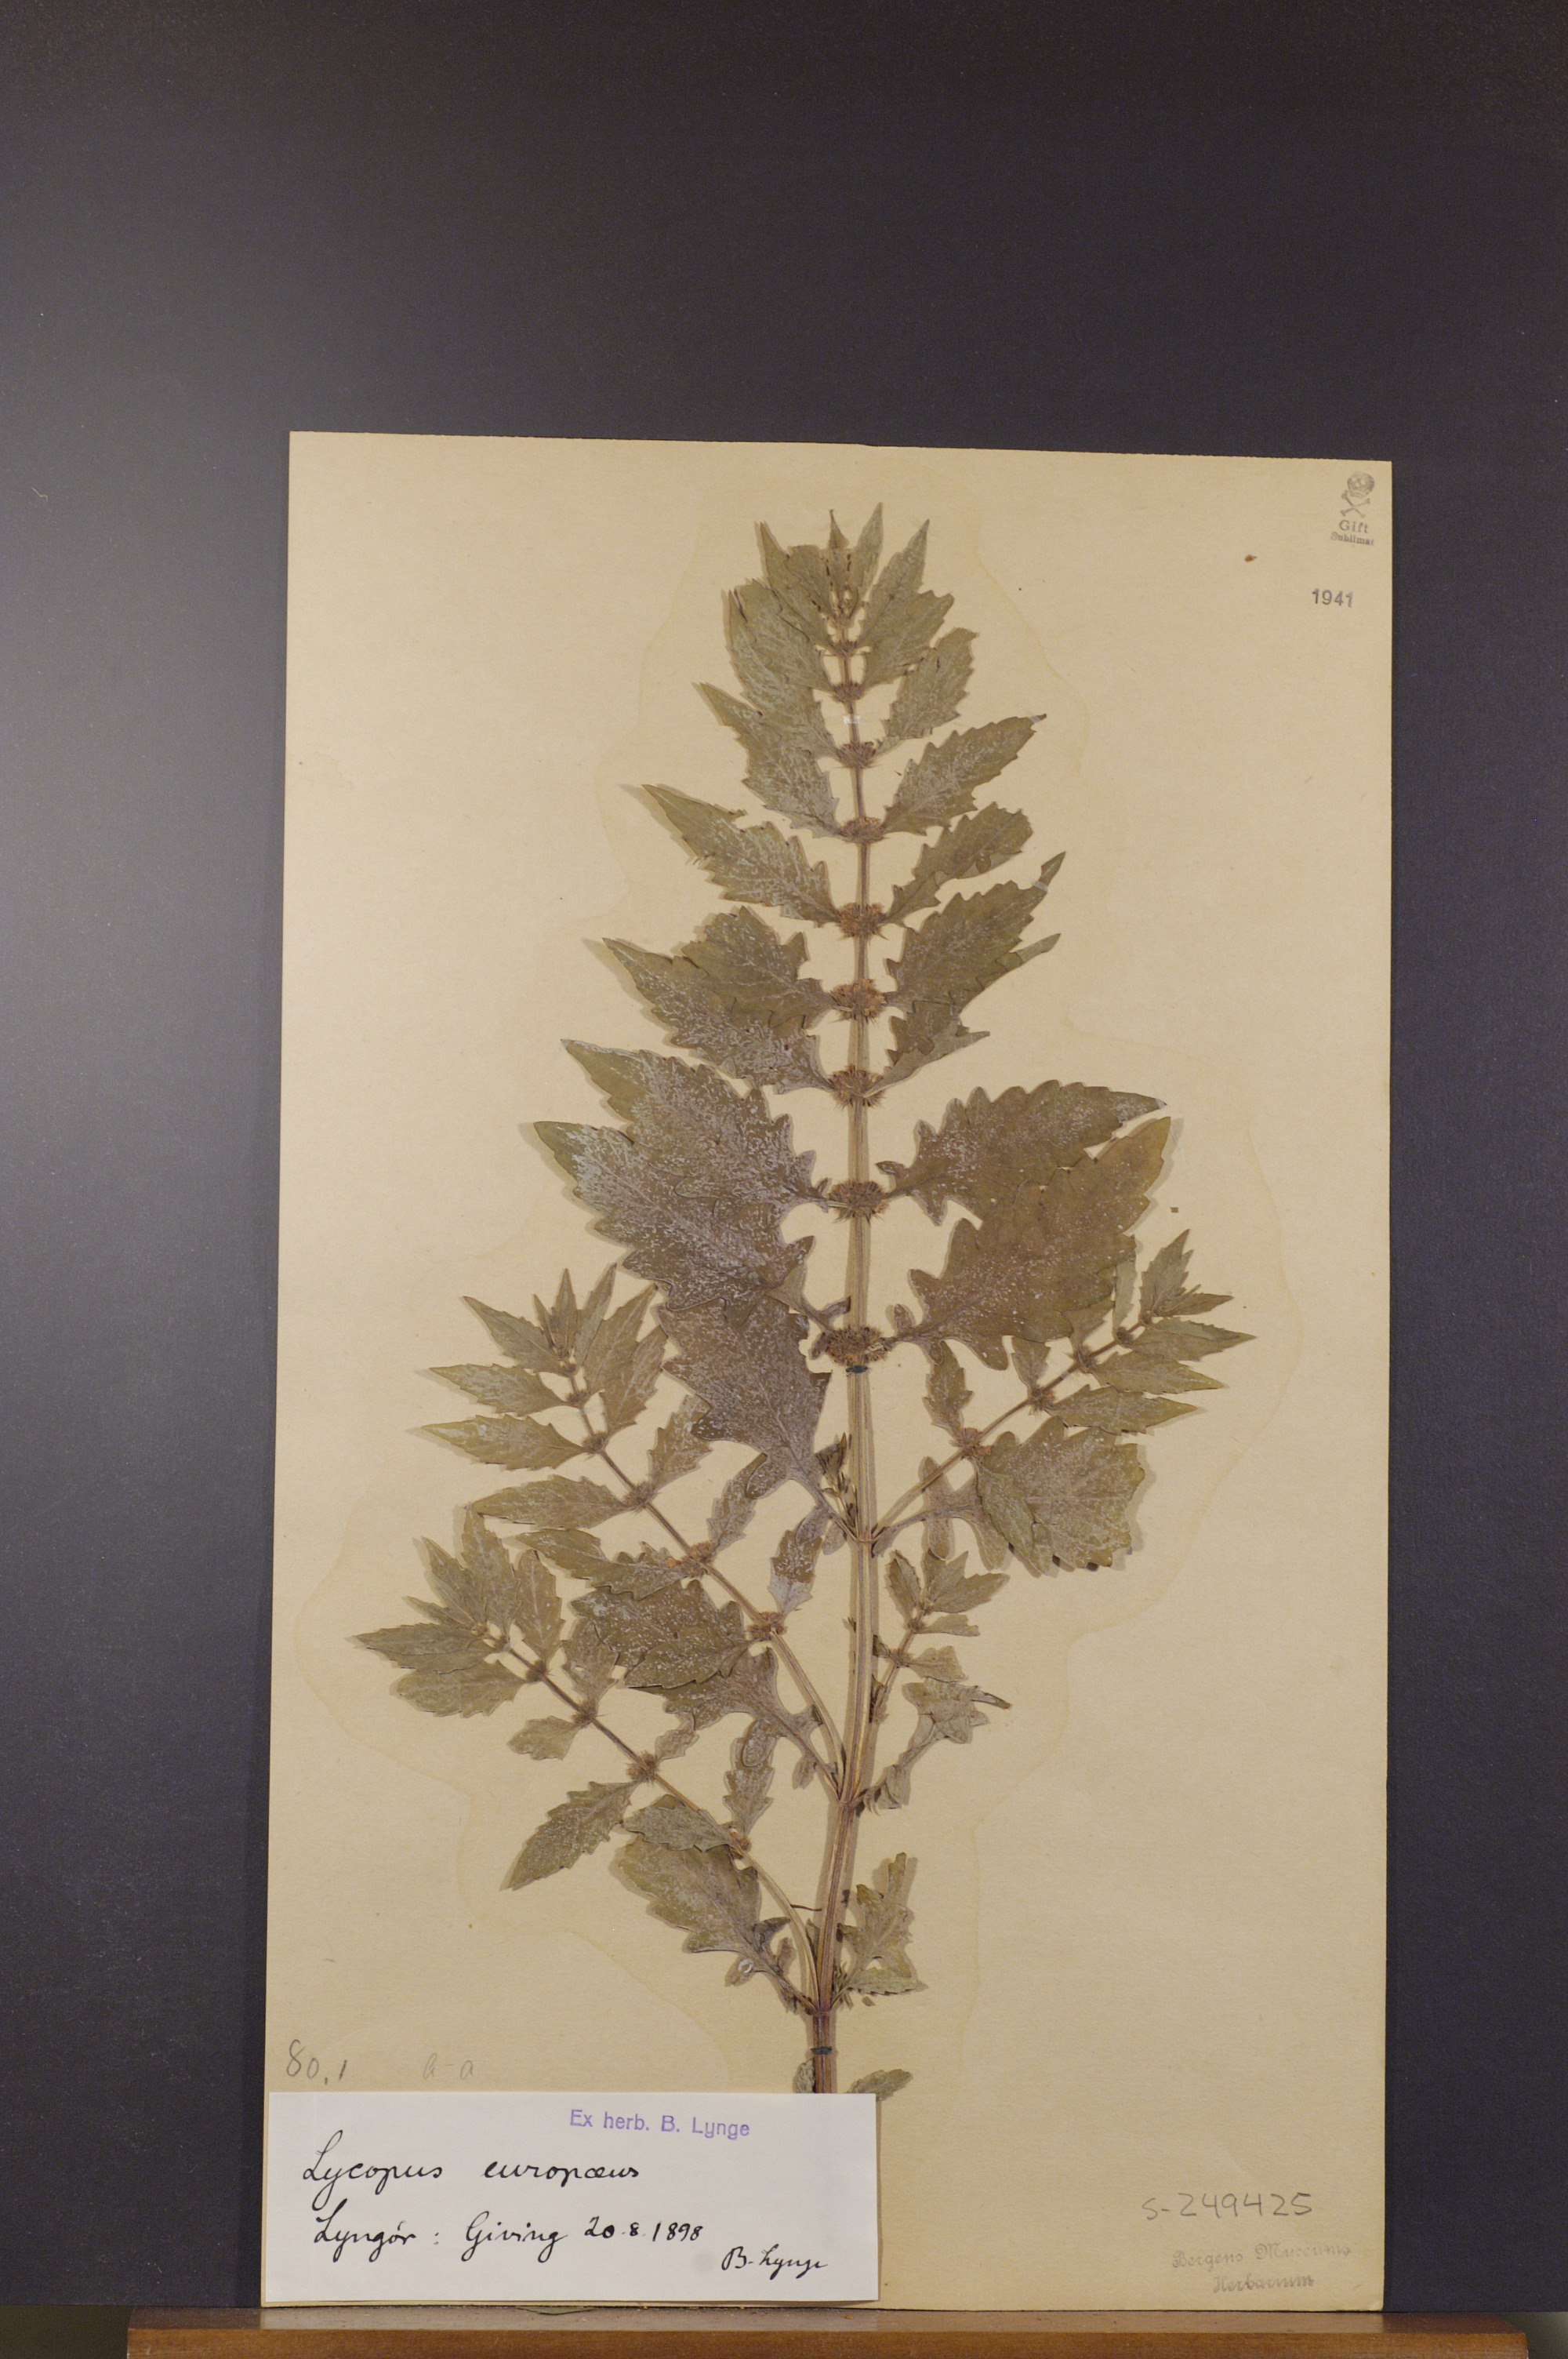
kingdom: Plantae
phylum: Tracheophyta
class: Magnoliopsida
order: Lamiales
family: Lamiaceae
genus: Lycopus
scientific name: Lycopus europaeus
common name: European bugleweed
